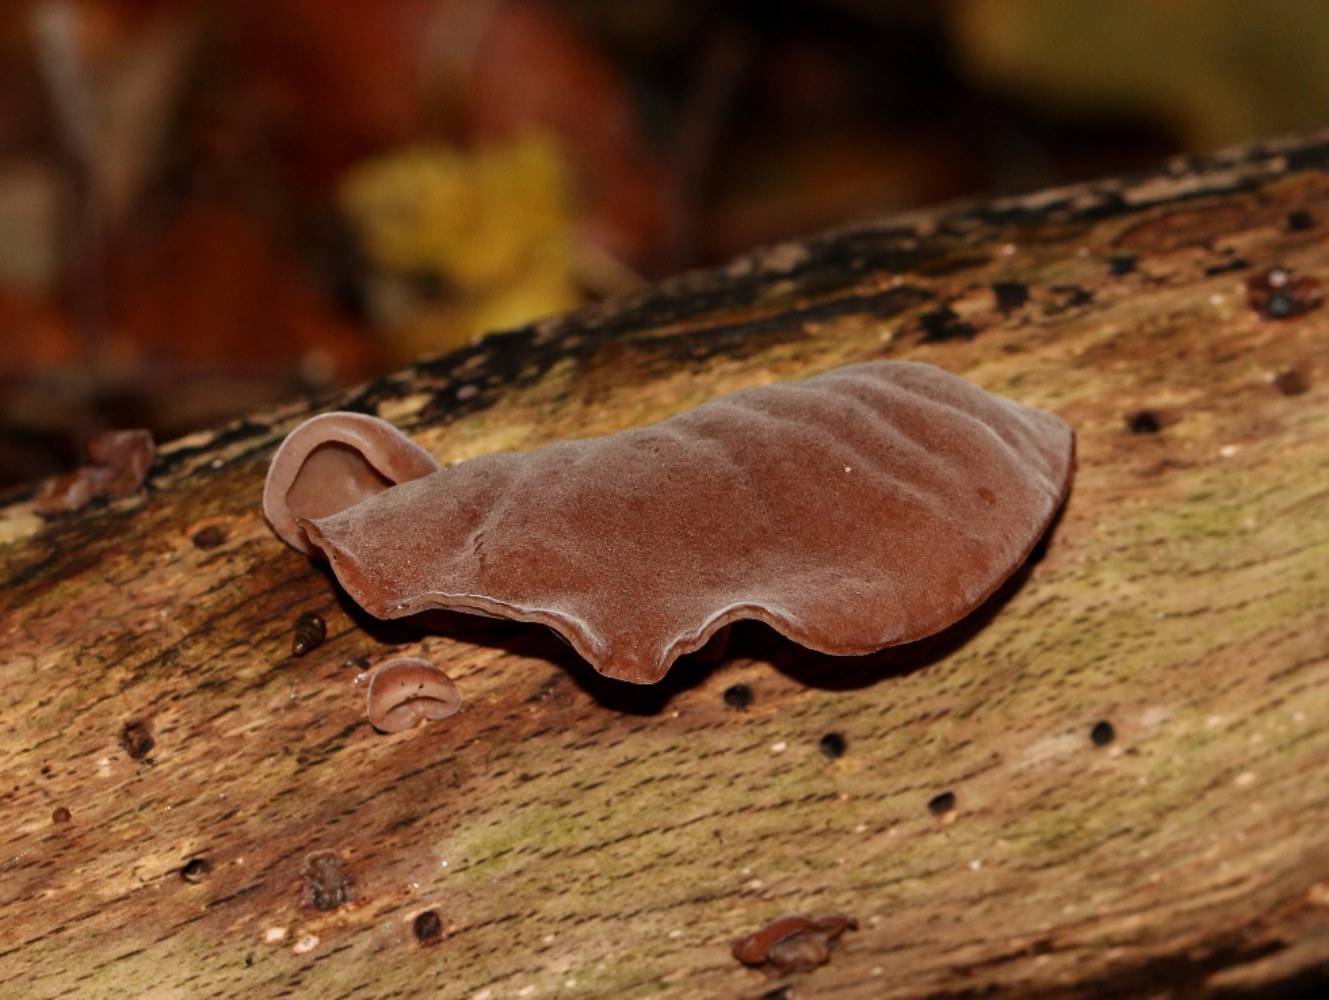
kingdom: Fungi
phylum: Basidiomycota
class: Agaricomycetes
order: Auriculariales
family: Auriculariaceae
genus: Auricularia
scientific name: Auricularia auricula-judae
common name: almindelig judasøre
